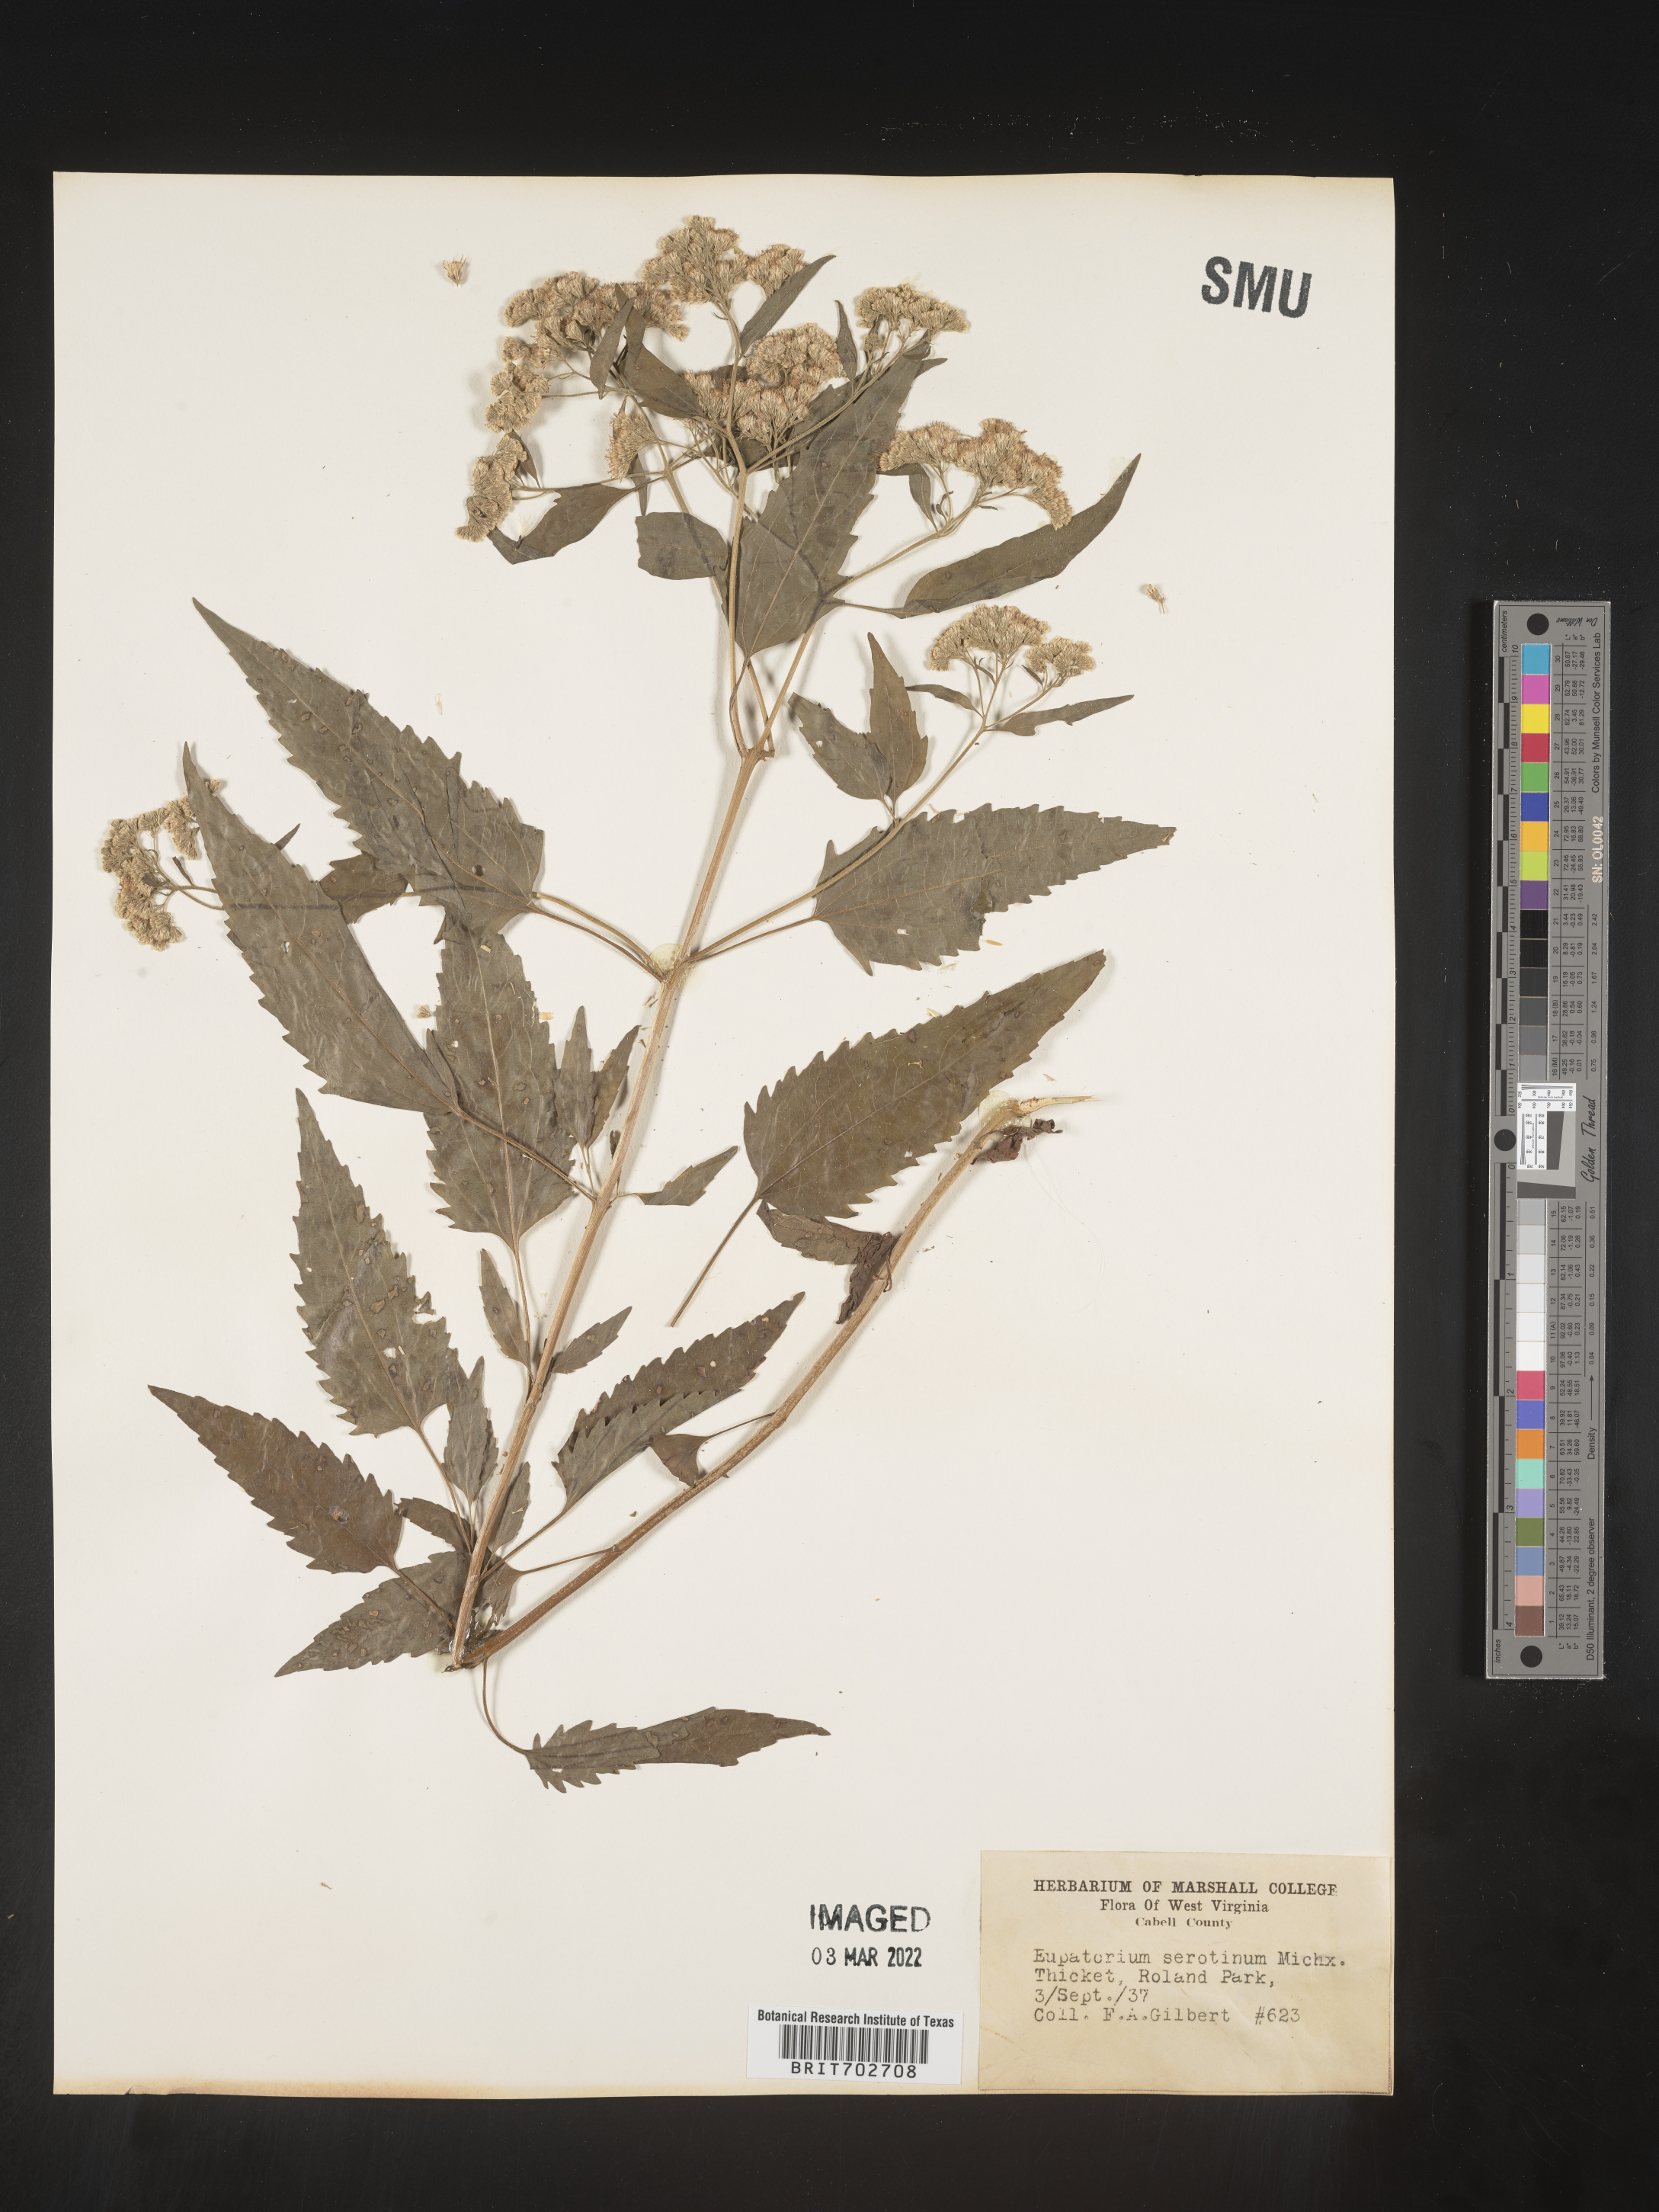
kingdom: Plantae
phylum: Tracheophyta
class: Magnoliopsida
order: Asterales
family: Asteraceae
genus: Eupatorium
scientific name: Eupatorium serotinum
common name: Late boneset
